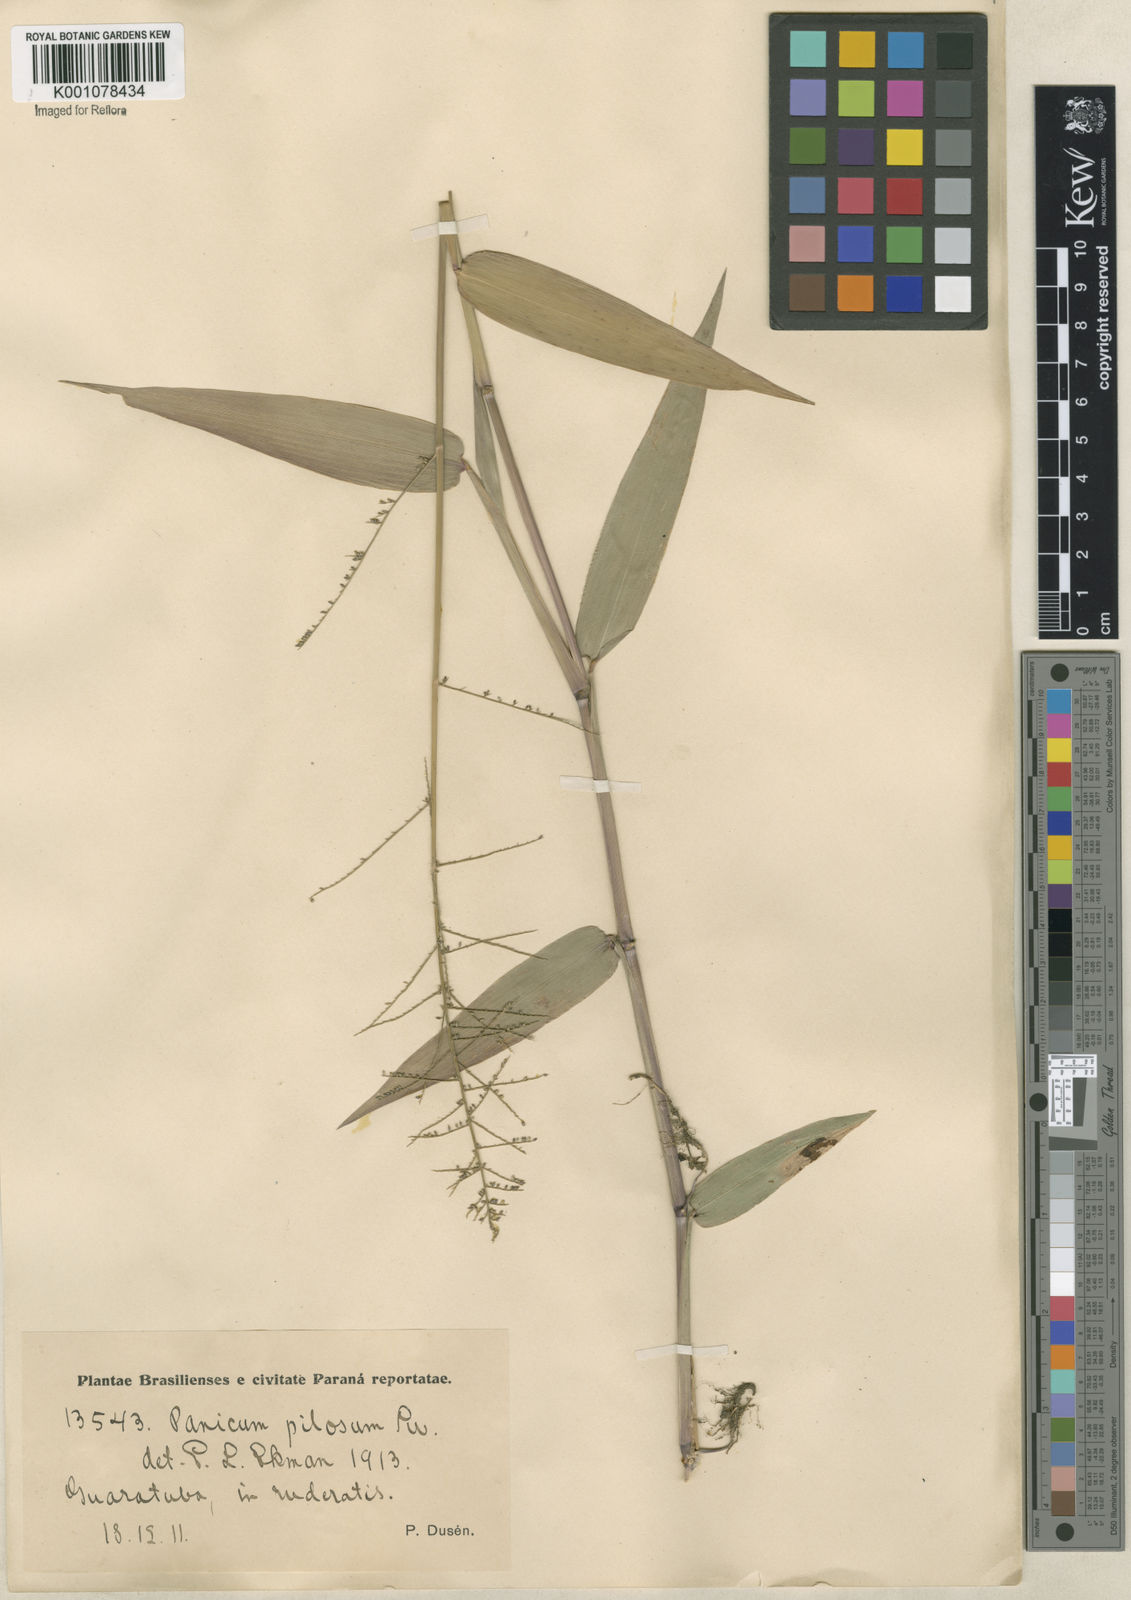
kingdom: Plantae
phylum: Tracheophyta
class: Liliopsida
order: Poales
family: Poaceae
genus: Rugoloa
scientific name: Rugoloa pilosa
